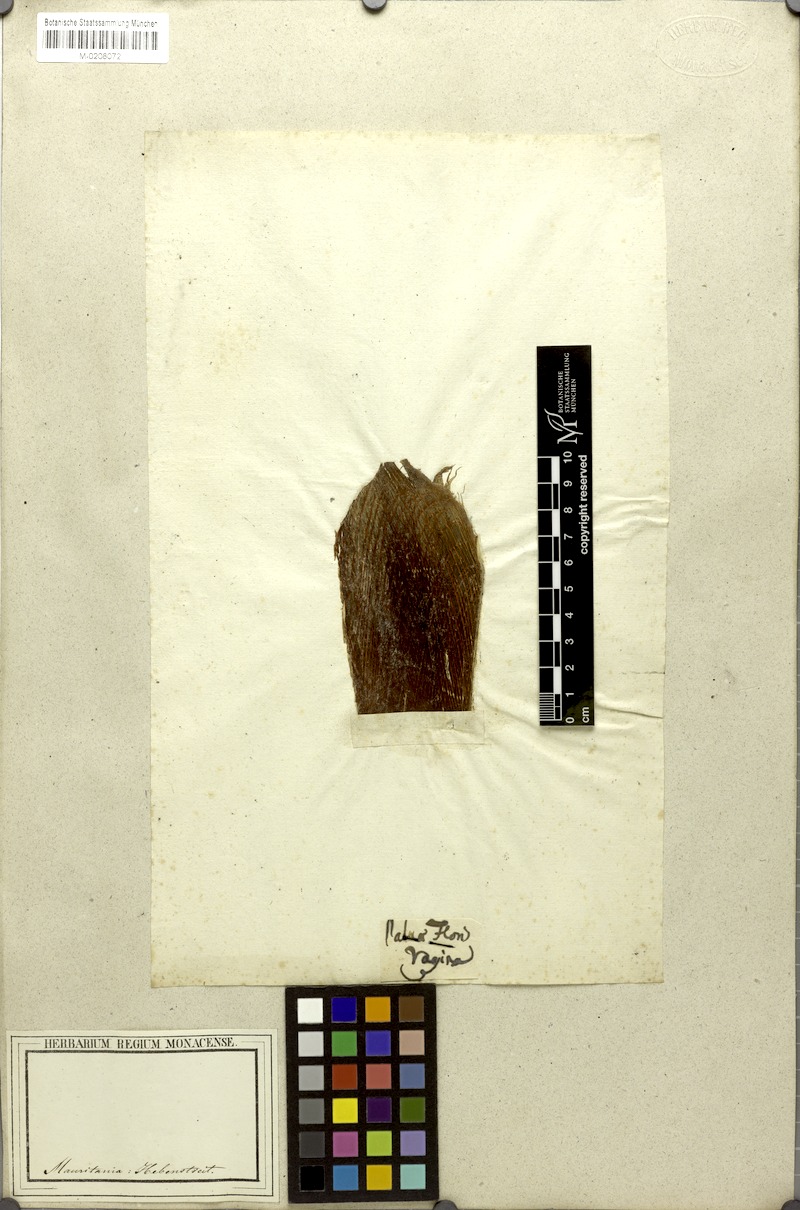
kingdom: Plantae
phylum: Tracheophyta
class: Liliopsida
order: Arecales
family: Arecaceae
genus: Chamaerops
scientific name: Chamaerops humilis
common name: Dwarf fan palm
